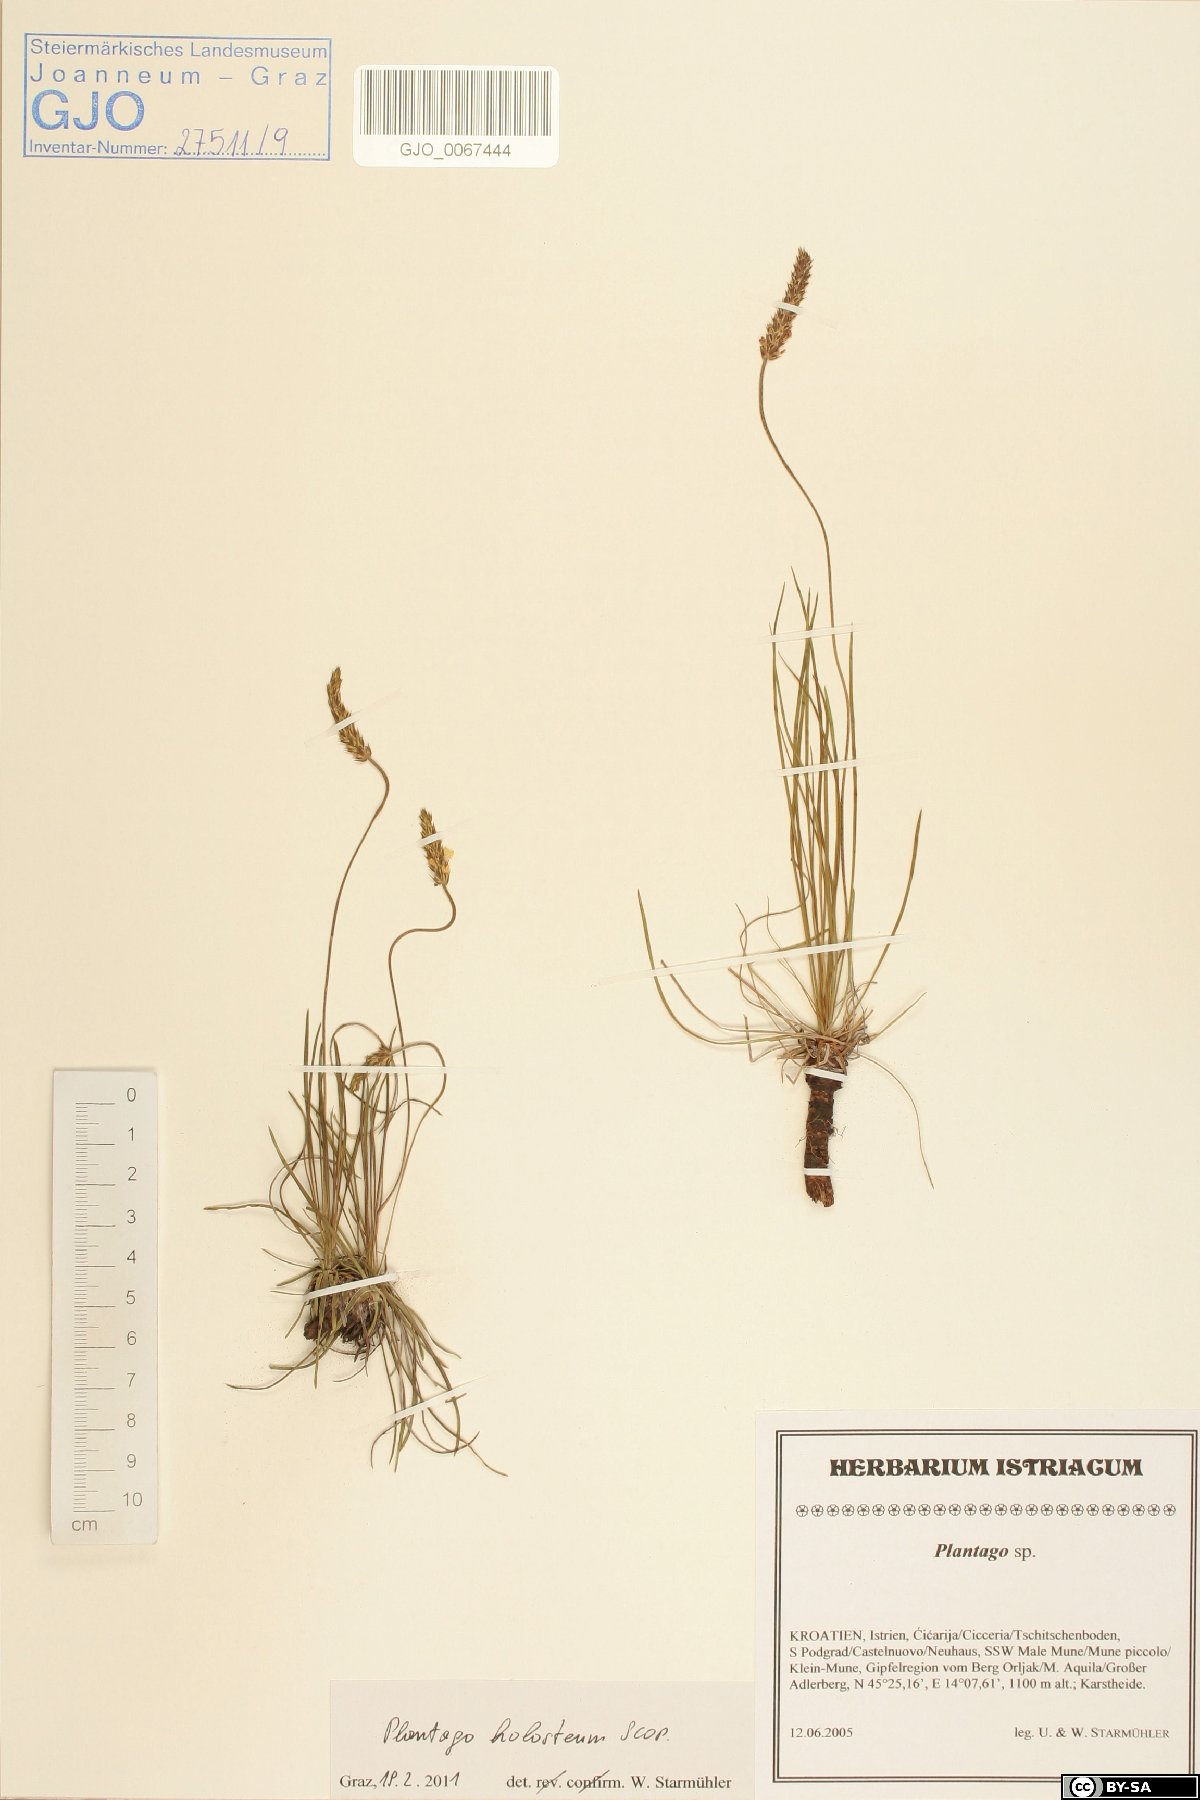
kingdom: Plantae
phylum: Tracheophyta
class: Magnoliopsida
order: Lamiales
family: Plantaginaceae
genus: Plantago
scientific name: Plantago subulata
